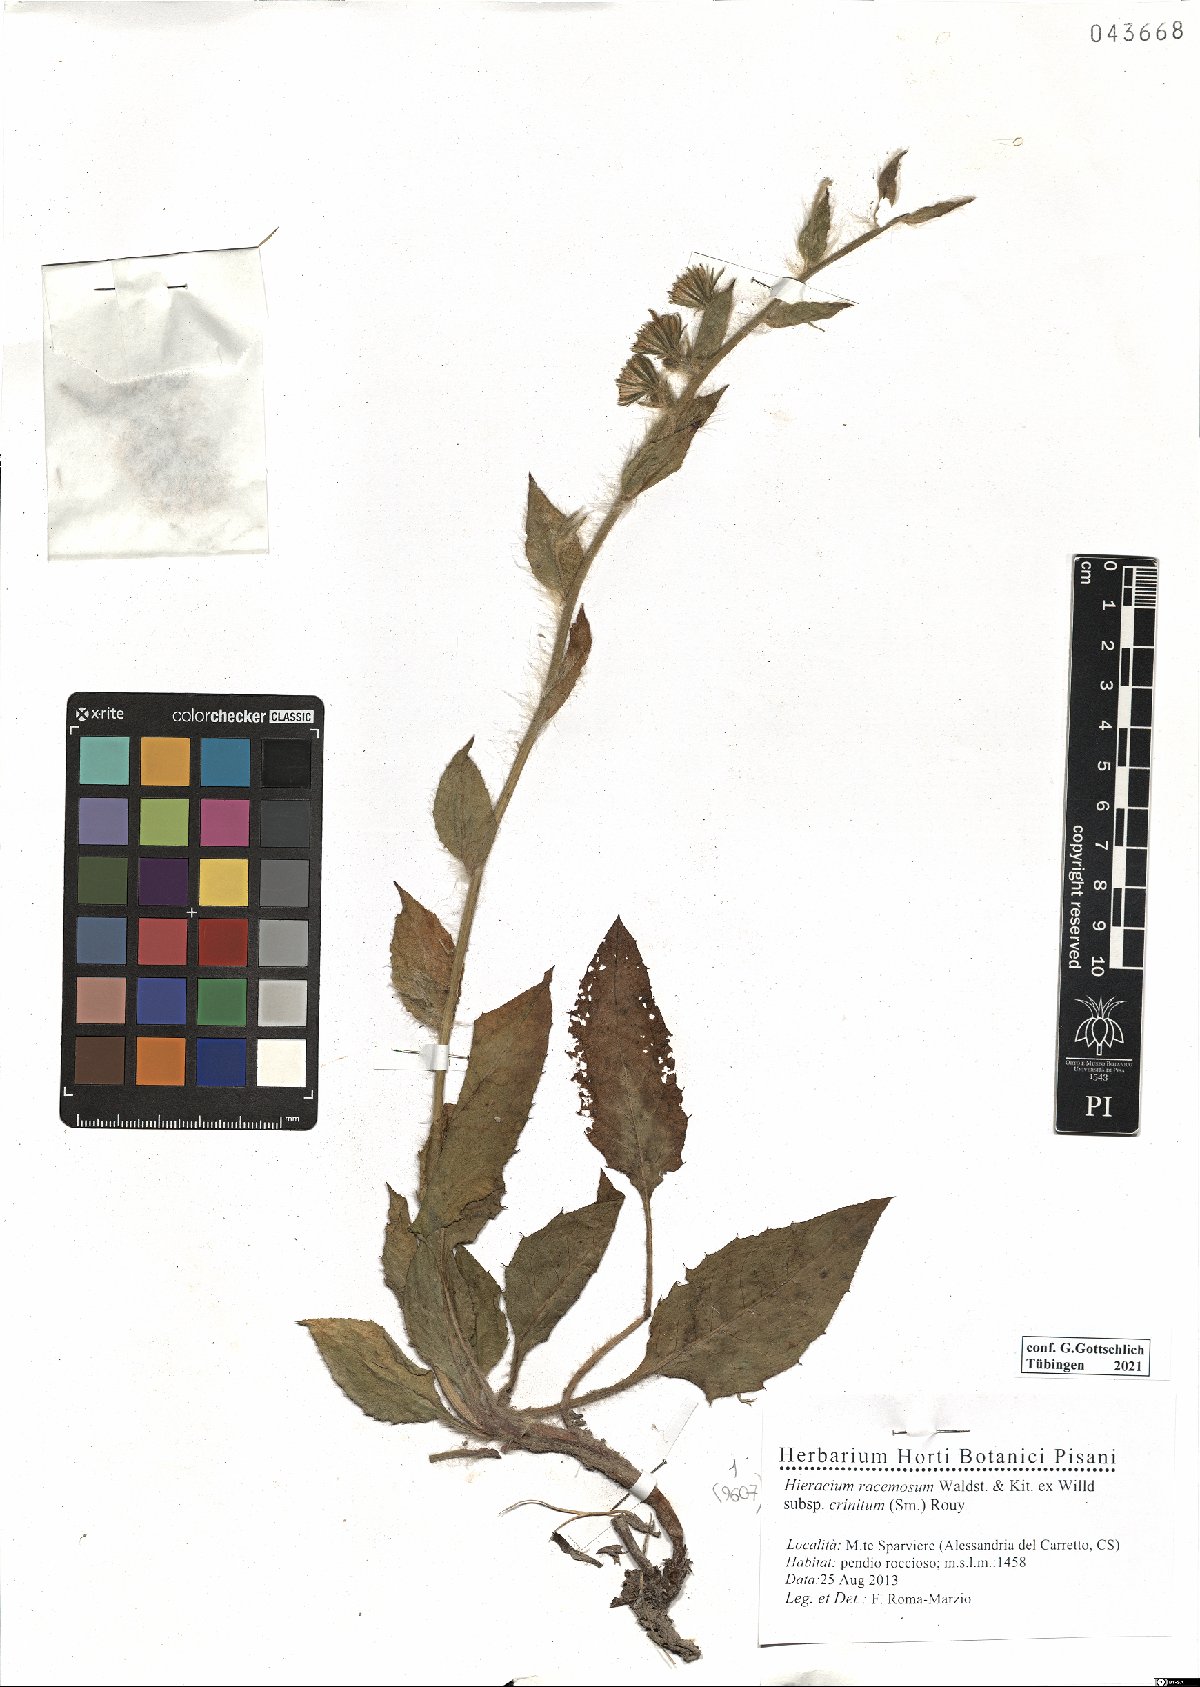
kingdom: Plantae
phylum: Tracheophyta
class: Magnoliopsida
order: Asterales
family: Asteraceae
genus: Hieracium
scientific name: Hieracium racemosum
